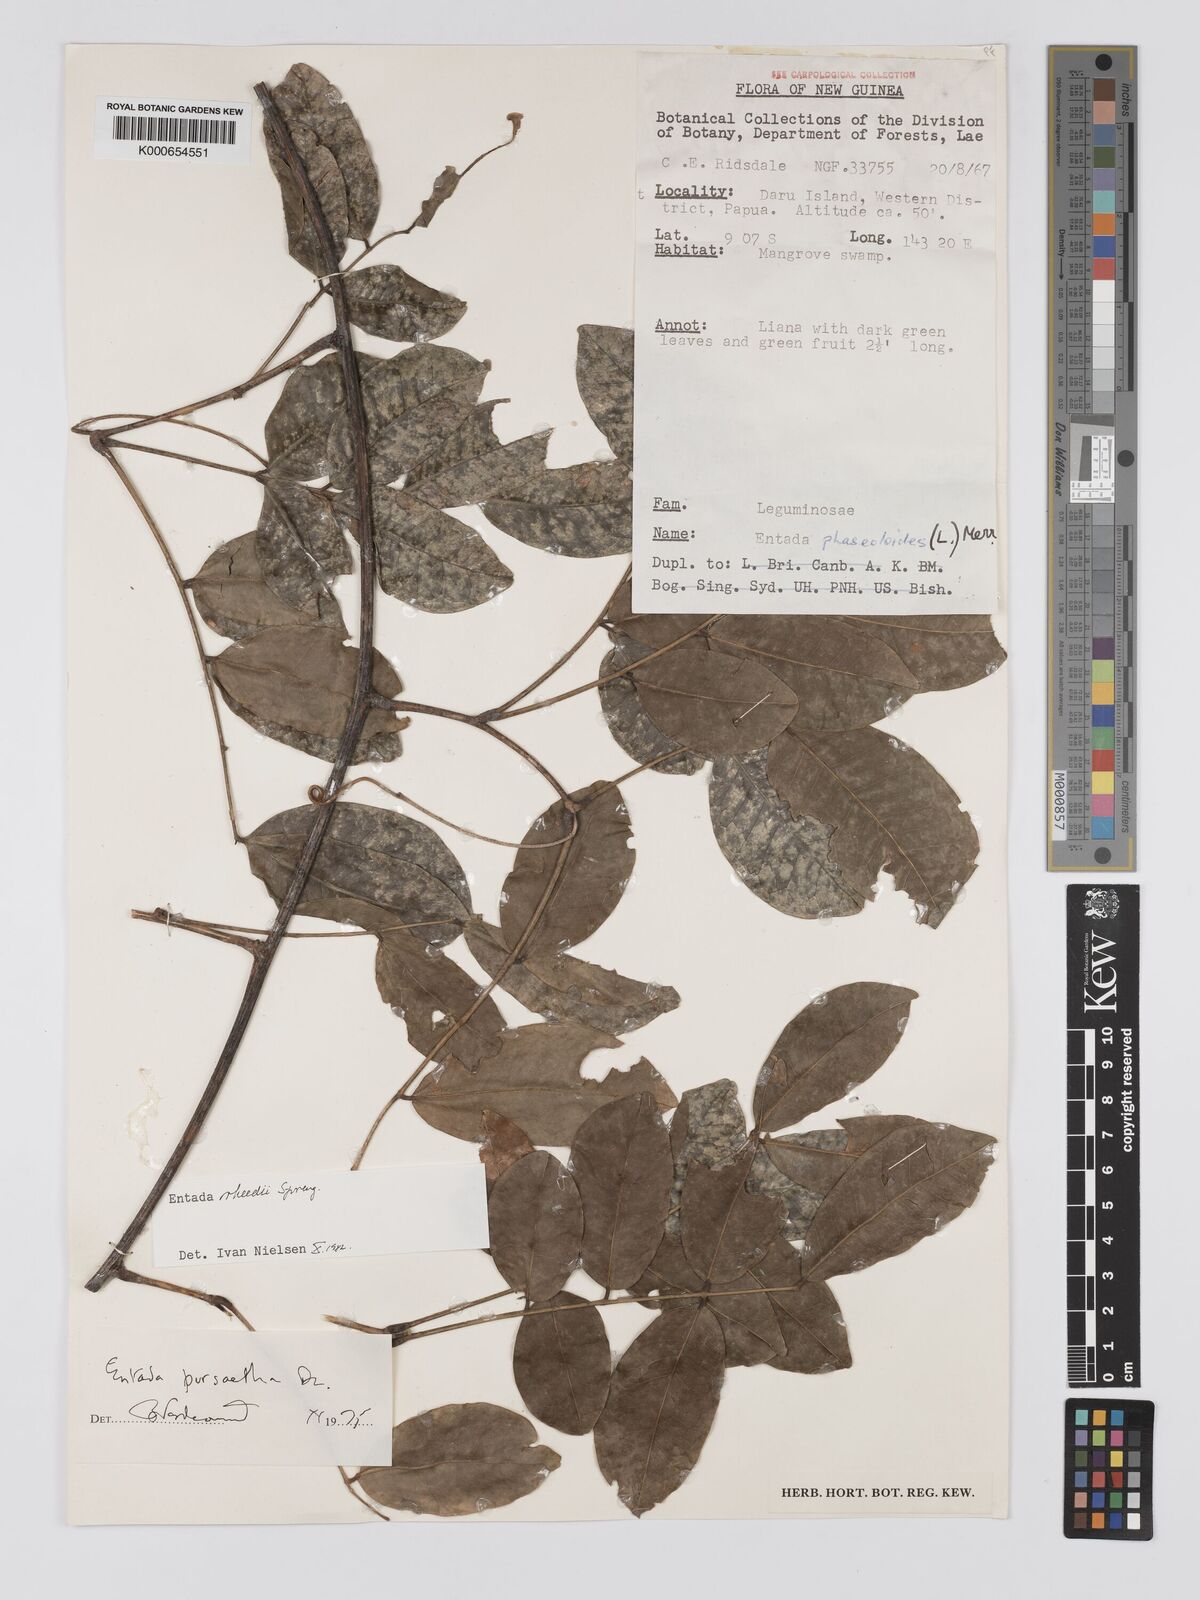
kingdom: Plantae
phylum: Tracheophyta
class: Magnoliopsida
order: Fabales
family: Fabaceae
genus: Entada
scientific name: Entada rheedei
